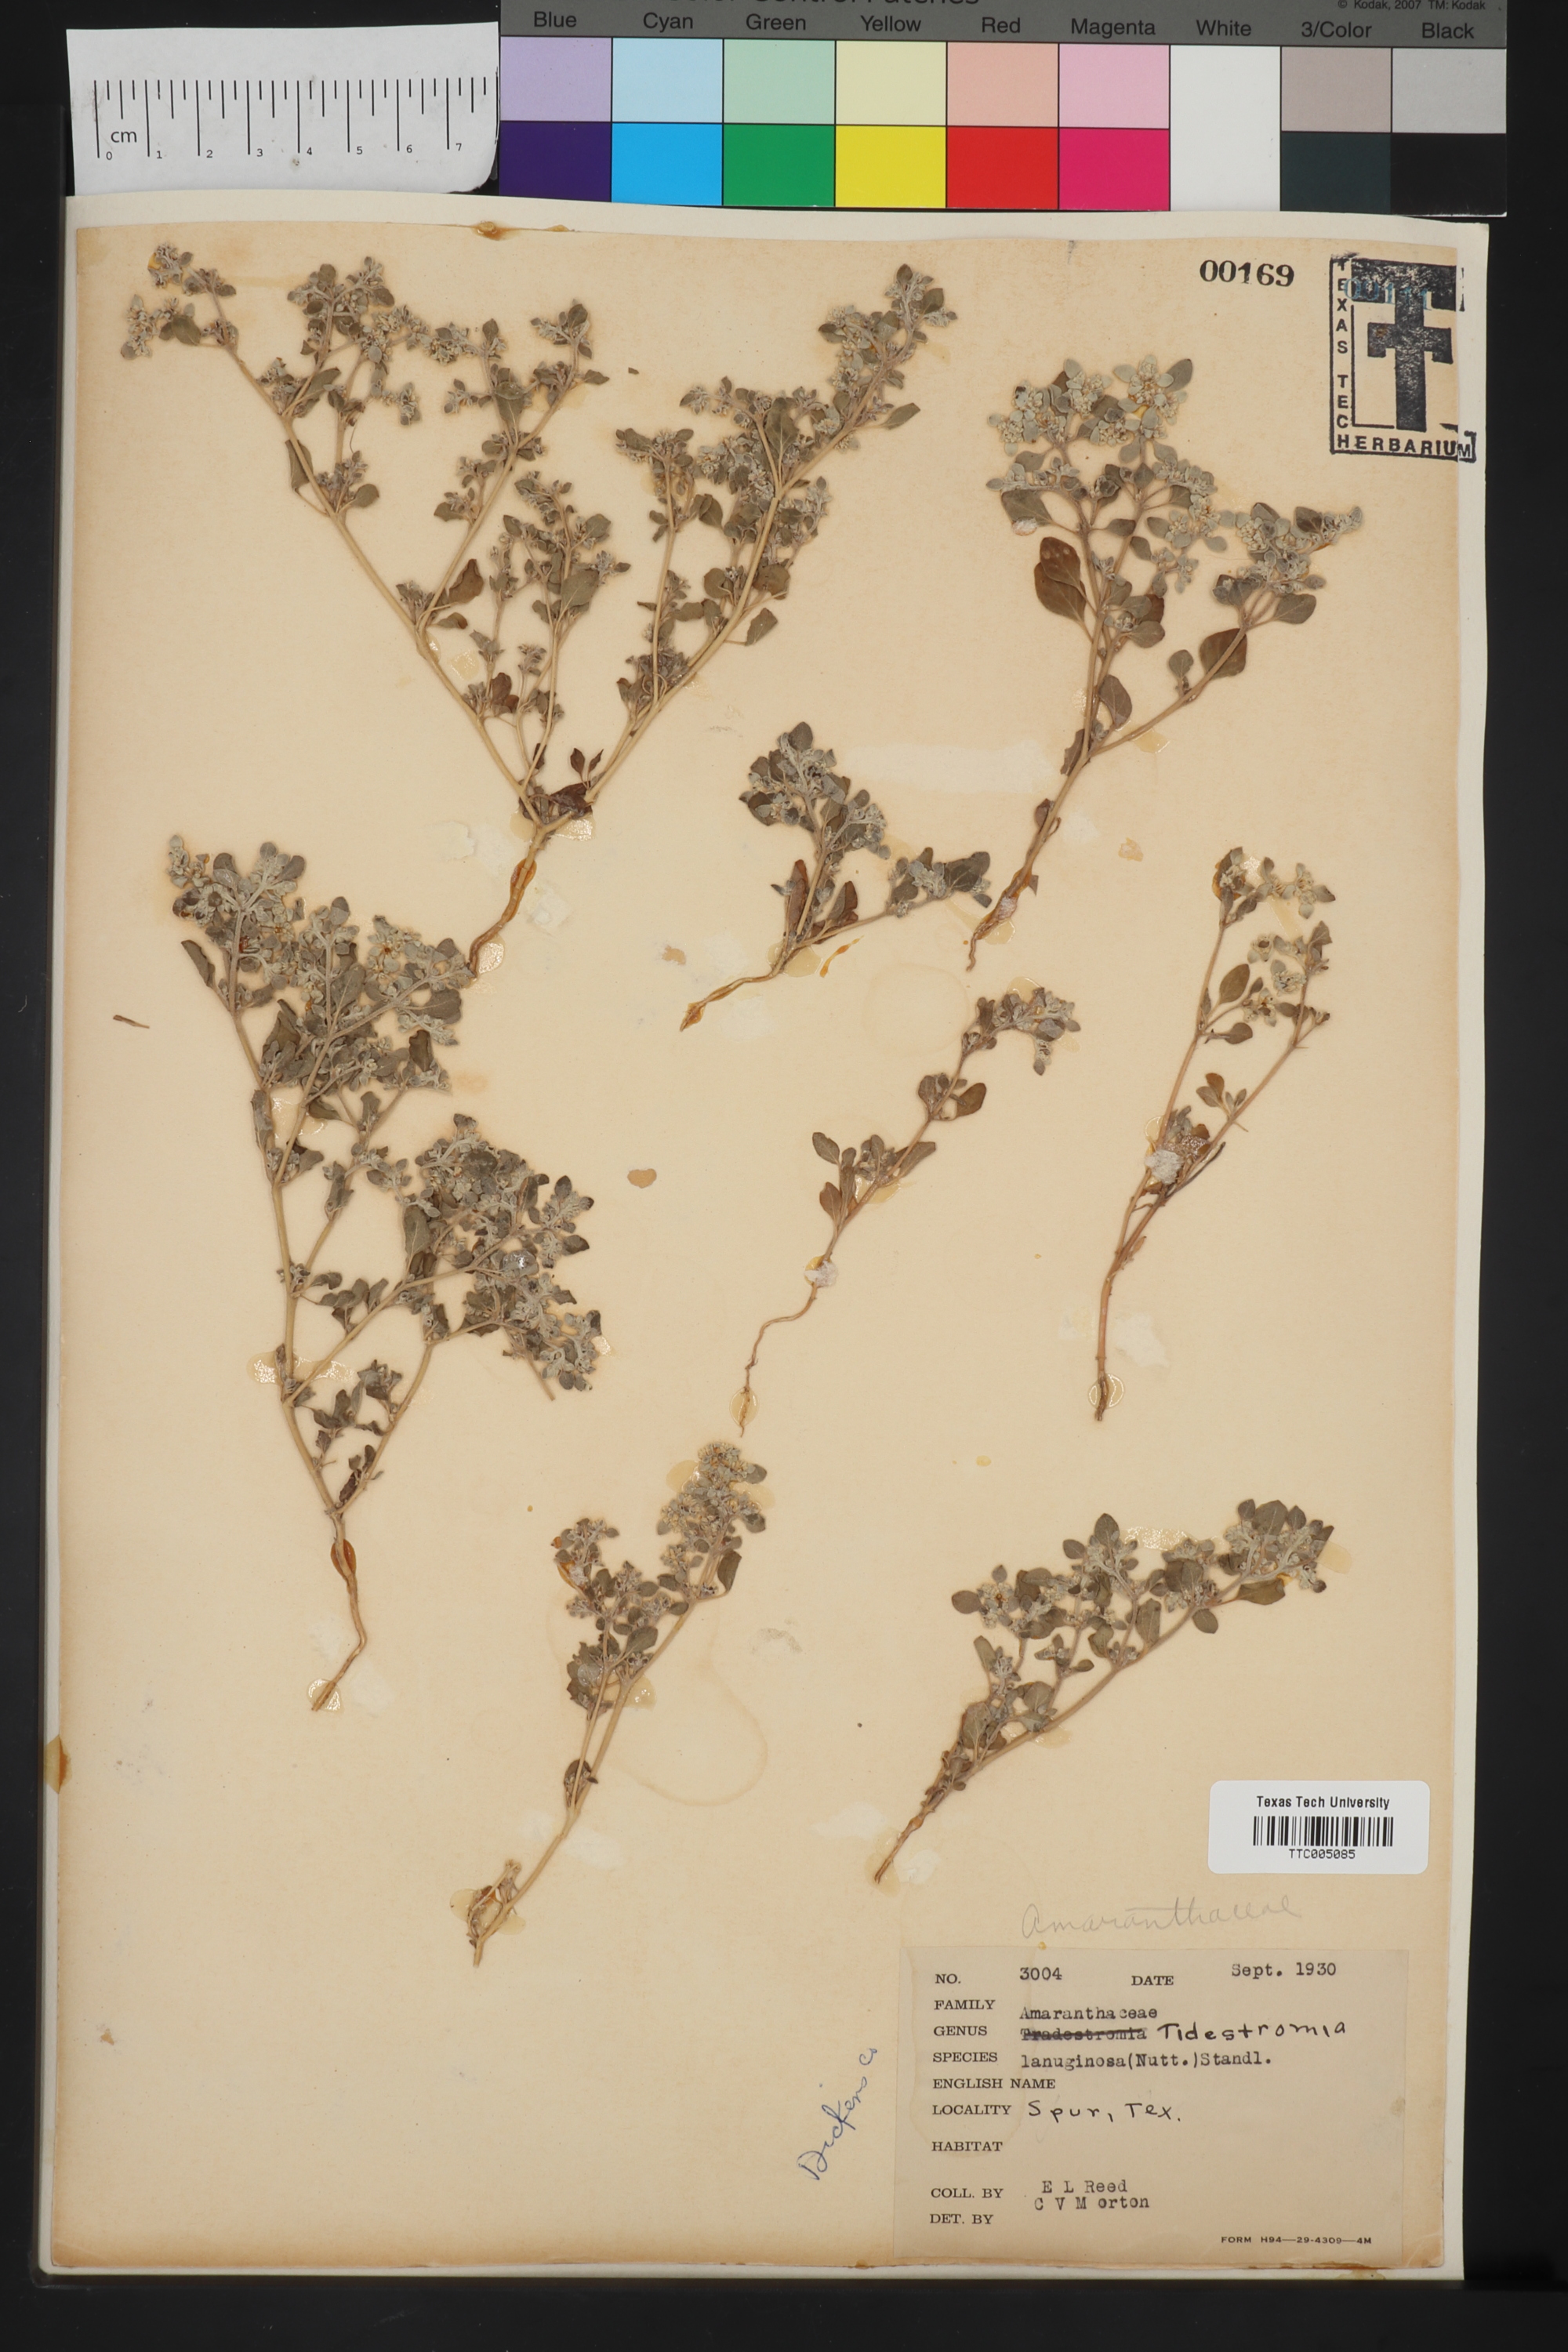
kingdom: Plantae
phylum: Tracheophyta
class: Magnoliopsida
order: Caryophyllales
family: Amaranthaceae
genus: Tidestromia
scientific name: Tidestromia lanuginosa
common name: Woolly tidestromia
